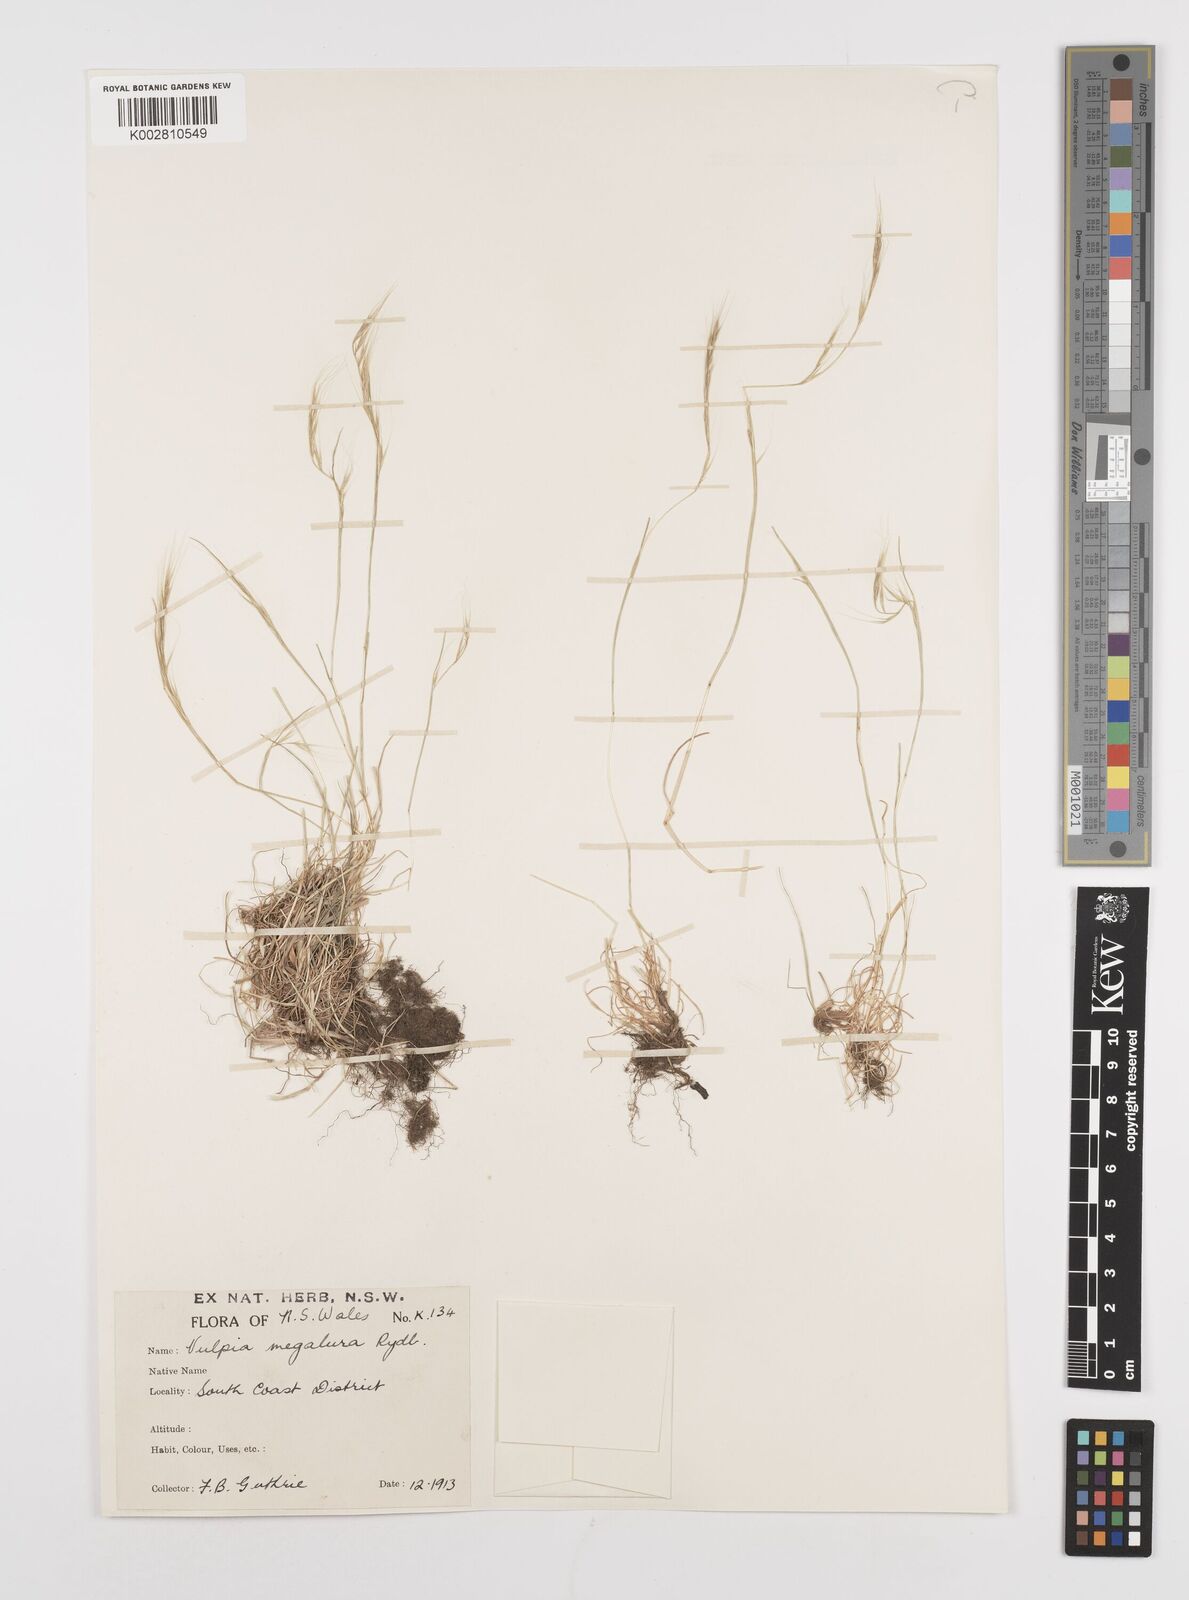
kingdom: Plantae
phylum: Tracheophyta
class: Liliopsida
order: Poales
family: Poaceae
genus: Festuca
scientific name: Festuca myuros
